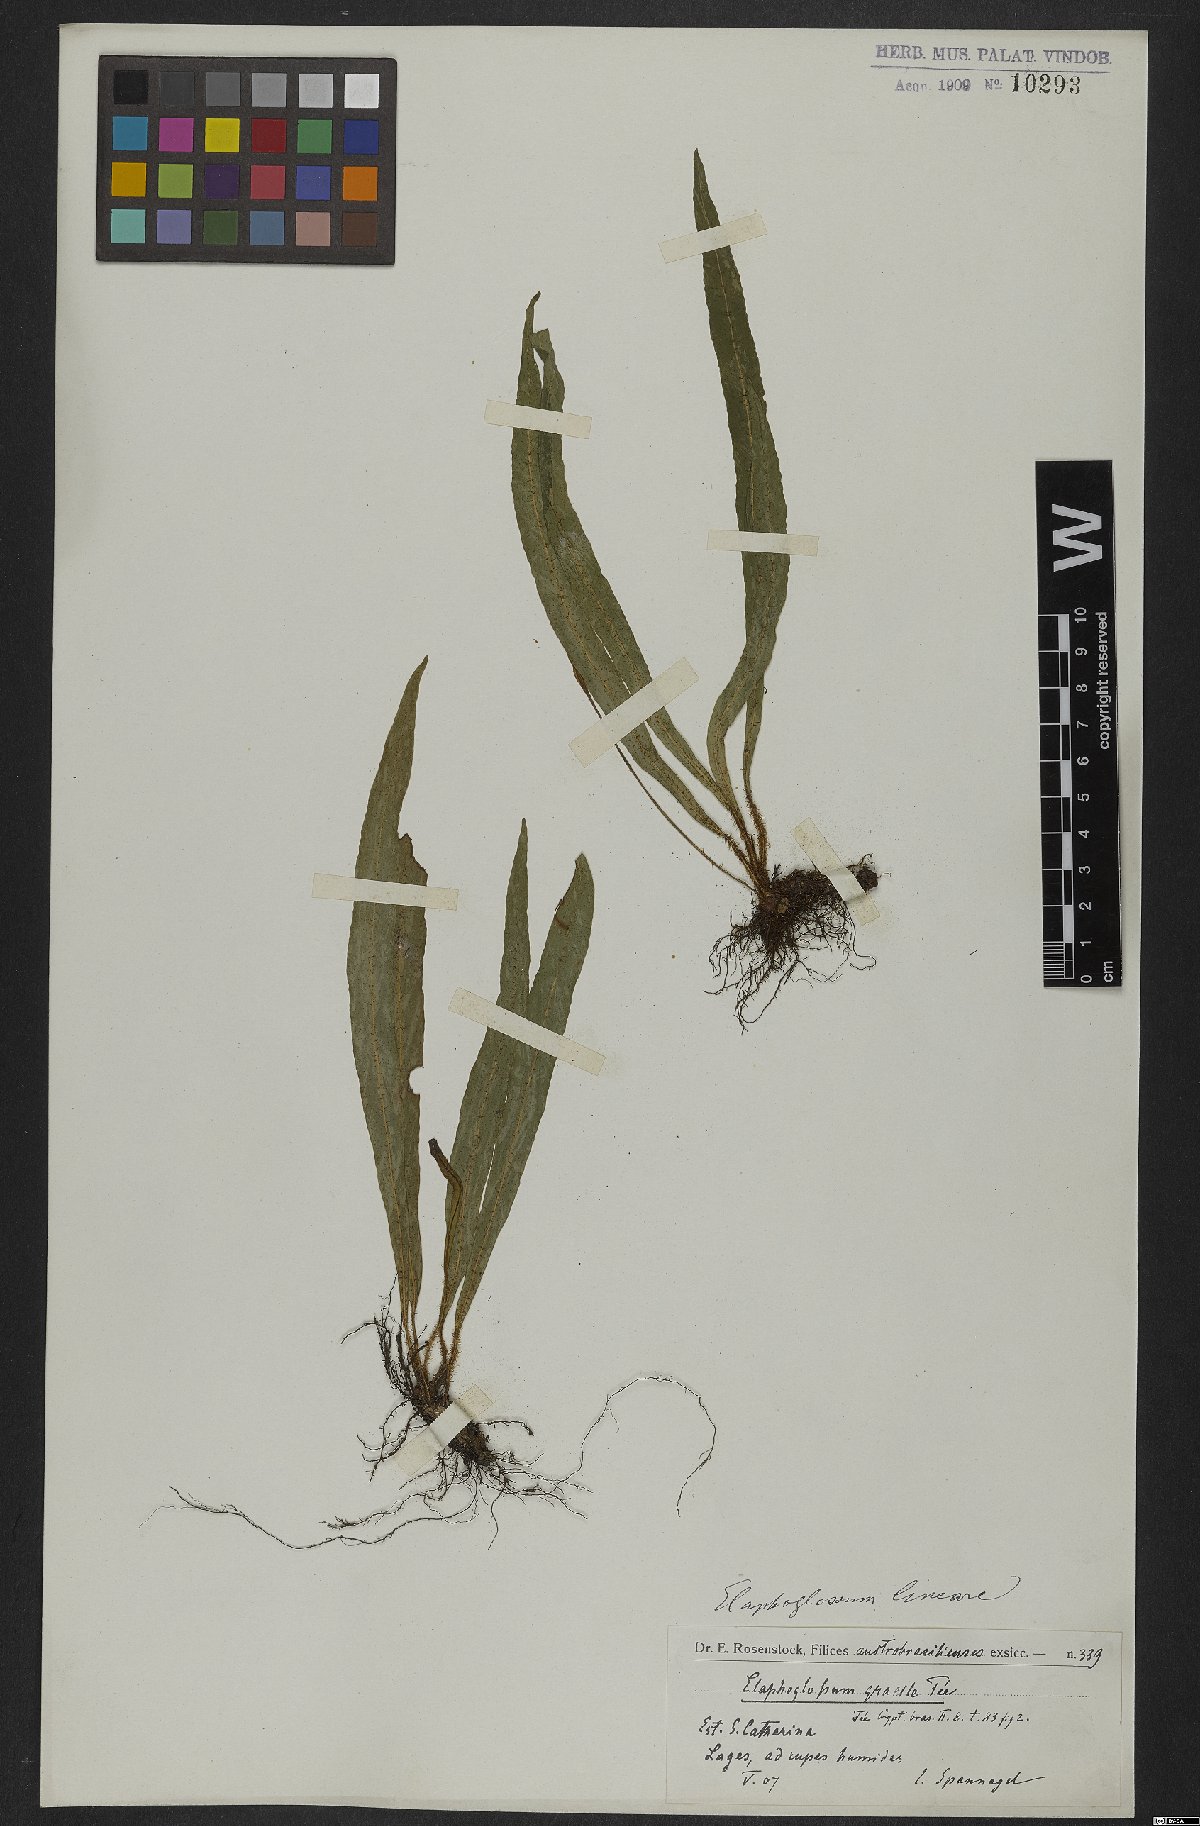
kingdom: Plantae
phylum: Tracheophyta
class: Polypodiopsida
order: Polypodiales
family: Dryopteridaceae
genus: Elaphoglossum
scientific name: Elaphoglossum brachyneuron
